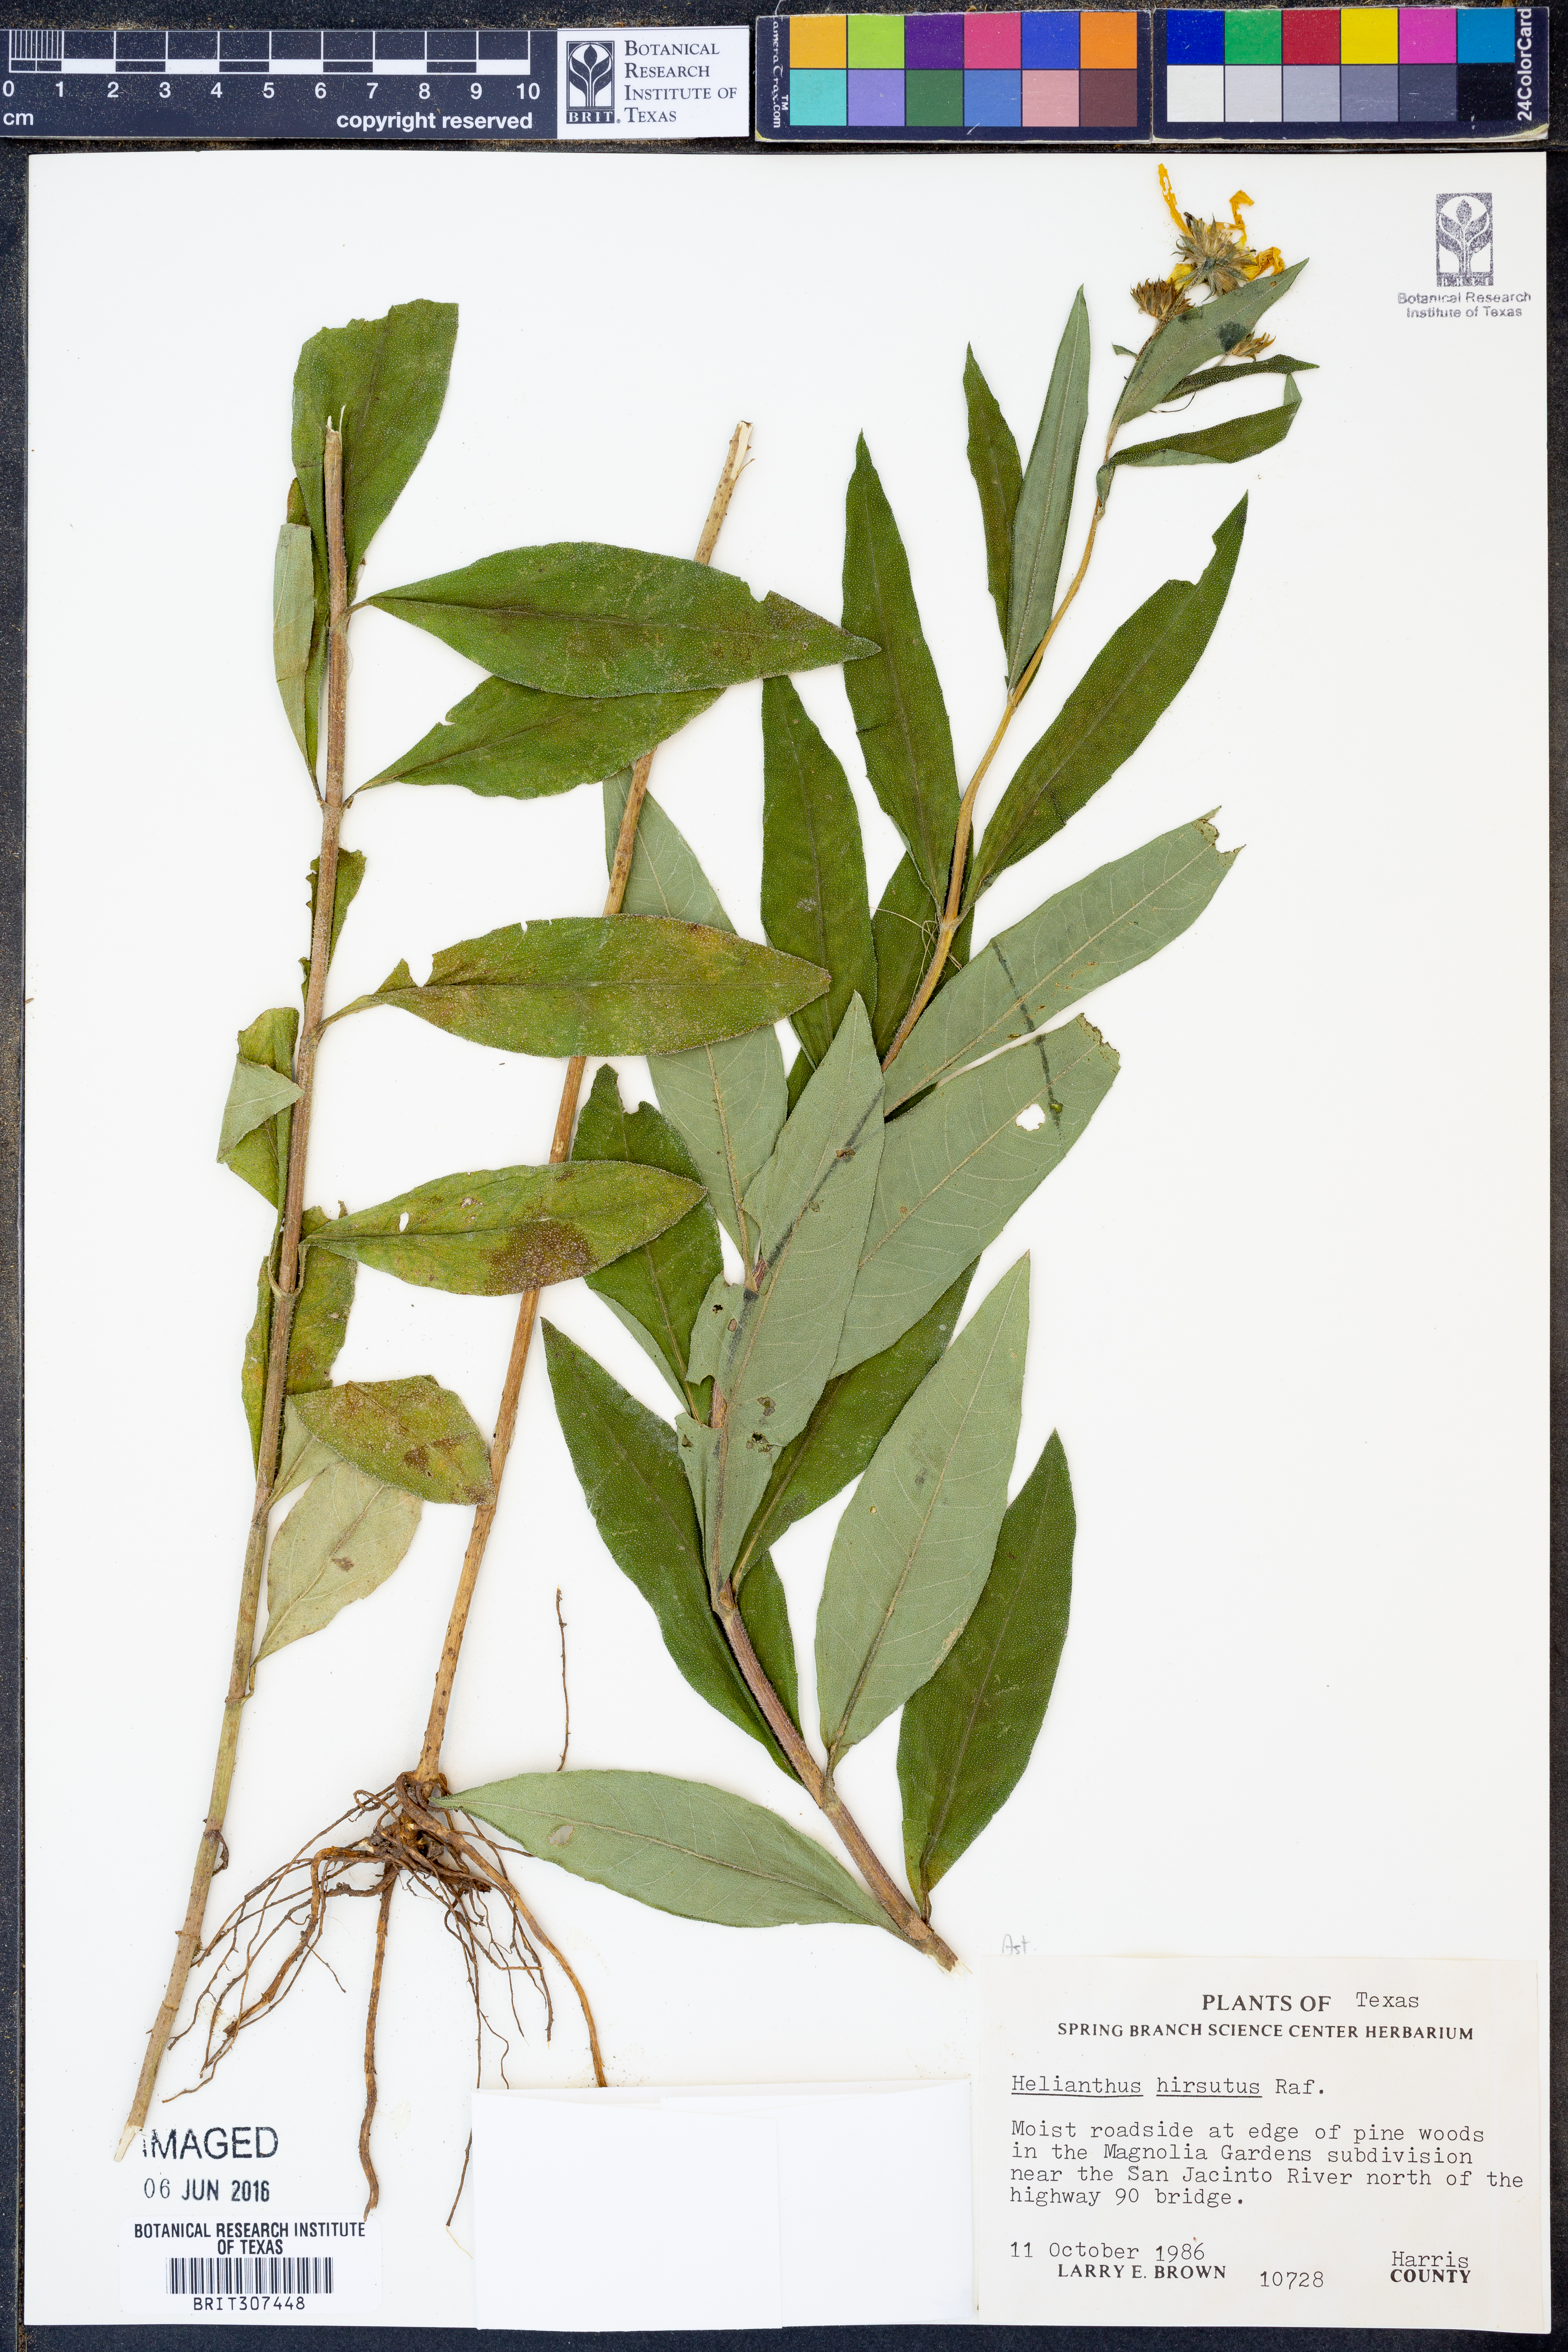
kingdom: Plantae
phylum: Tracheophyta
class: Magnoliopsida
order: Asterales
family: Asteraceae
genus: Helianthus
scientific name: Helianthus hirsutus
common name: Hairy sunflower
